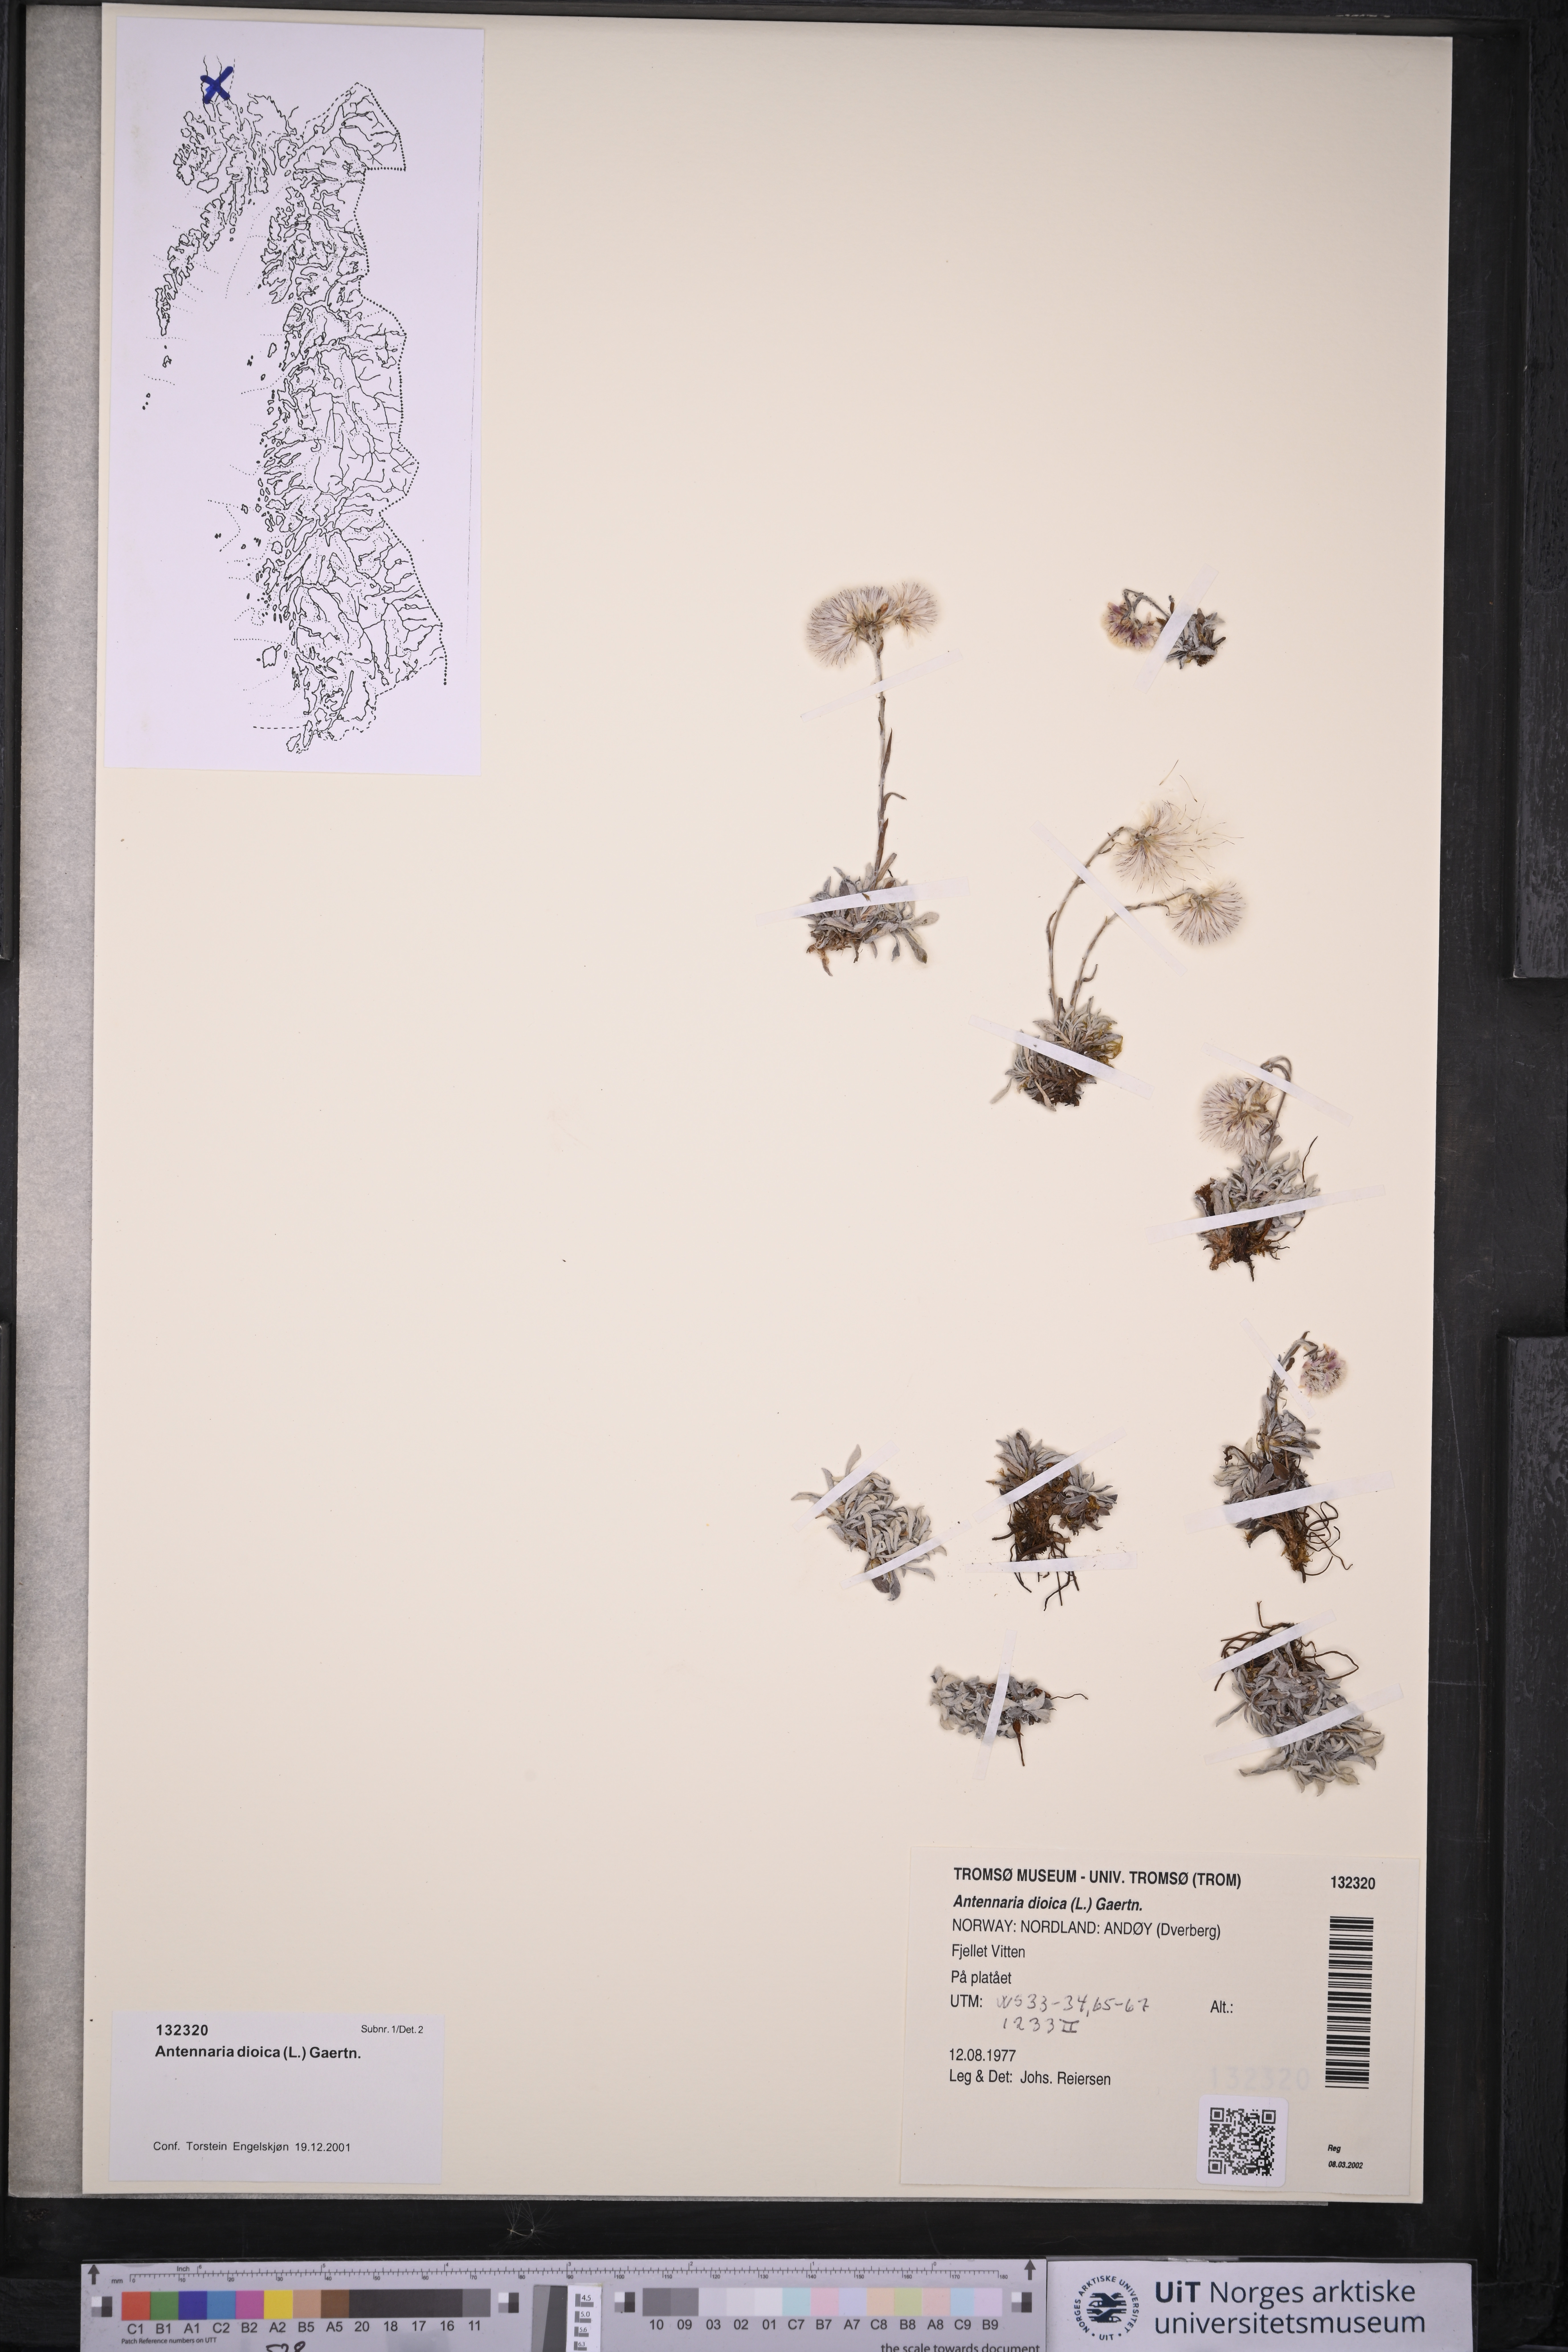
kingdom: Plantae
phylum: Tracheophyta
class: Magnoliopsida
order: Asterales
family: Asteraceae
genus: Antennaria
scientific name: Antennaria dioica
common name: Mountain everlasting
